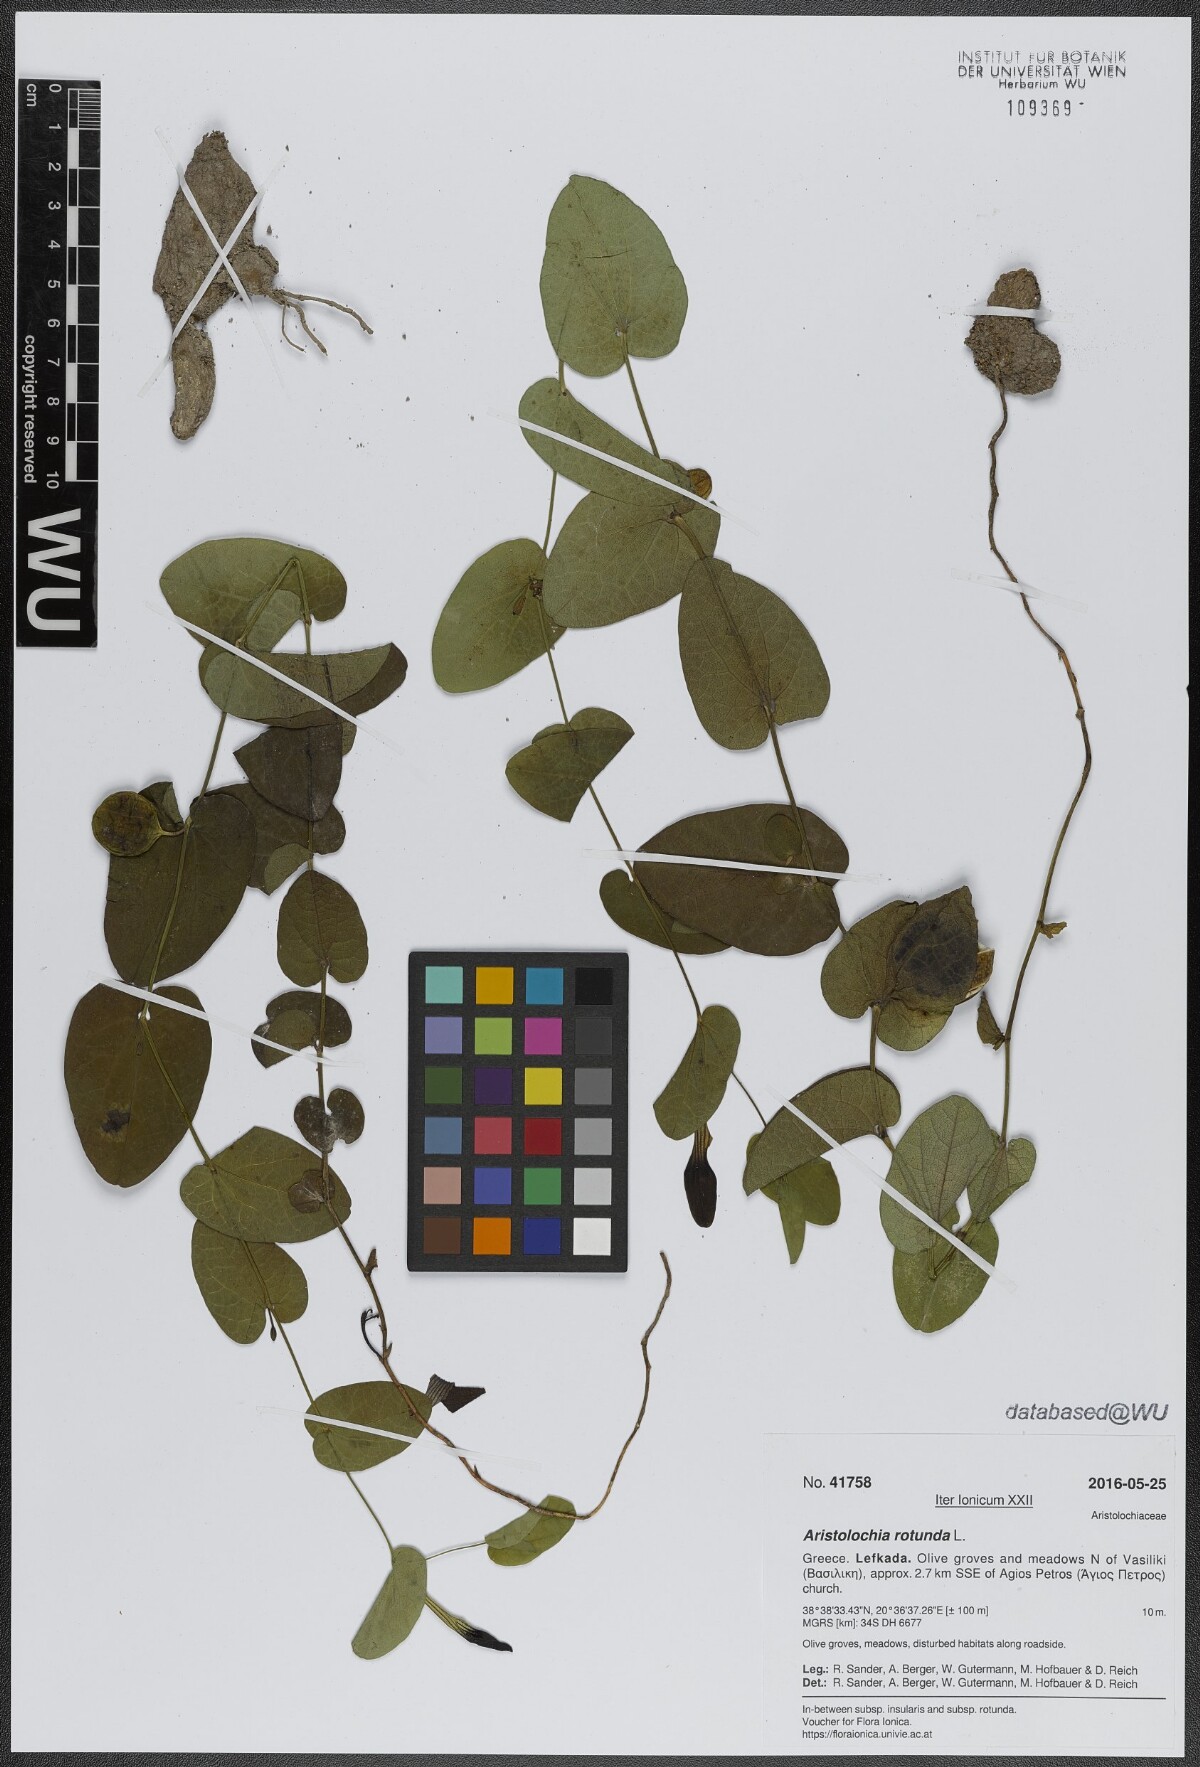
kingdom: Plantae
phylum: Tracheophyta
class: Magnoliopsida
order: Piperales
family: Aristolochiaceae
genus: Aristolochia
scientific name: Aristolochia rotunda
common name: Smearwort
